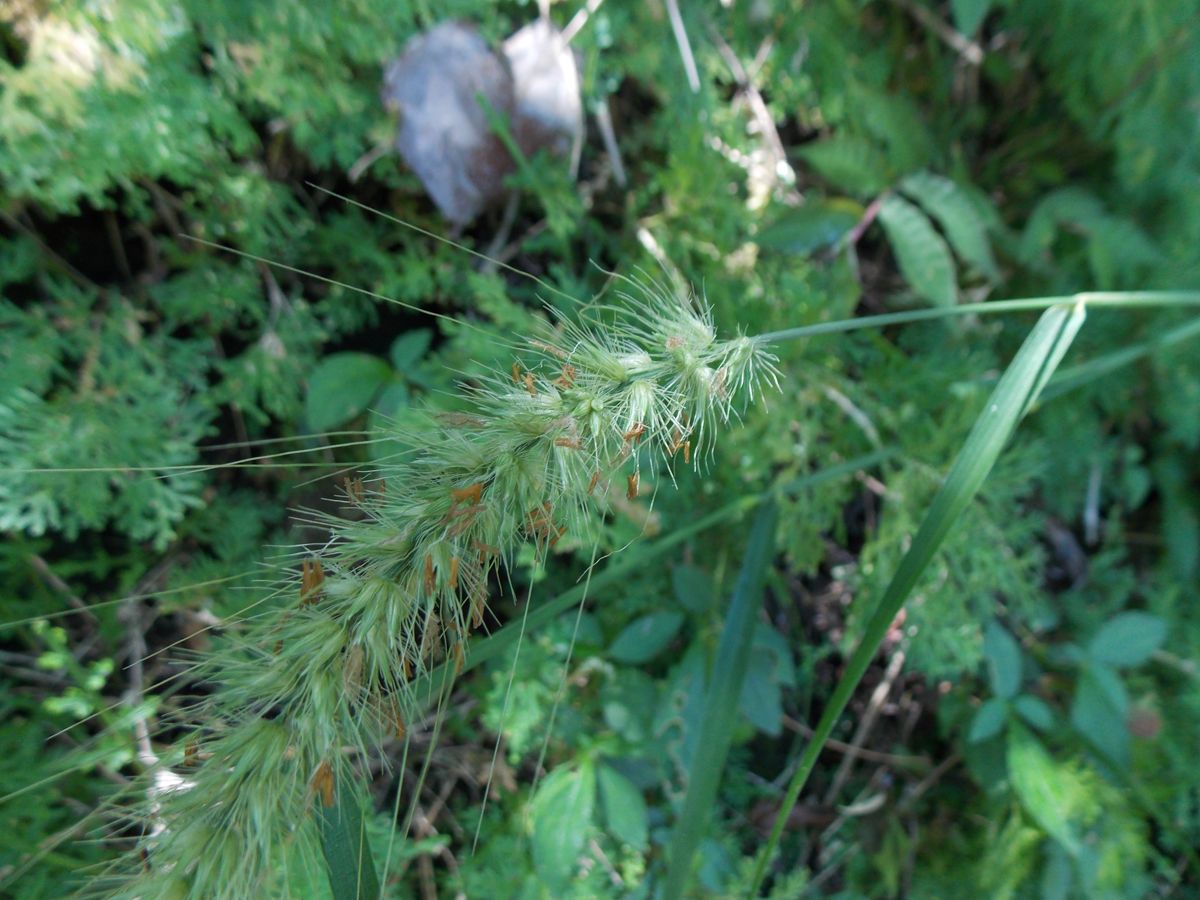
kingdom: Plantae
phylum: Tracheophyta
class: Liliopsida
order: Poales
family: Poaceae
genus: Cenchrus
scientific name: Cenchrus multiflorus
